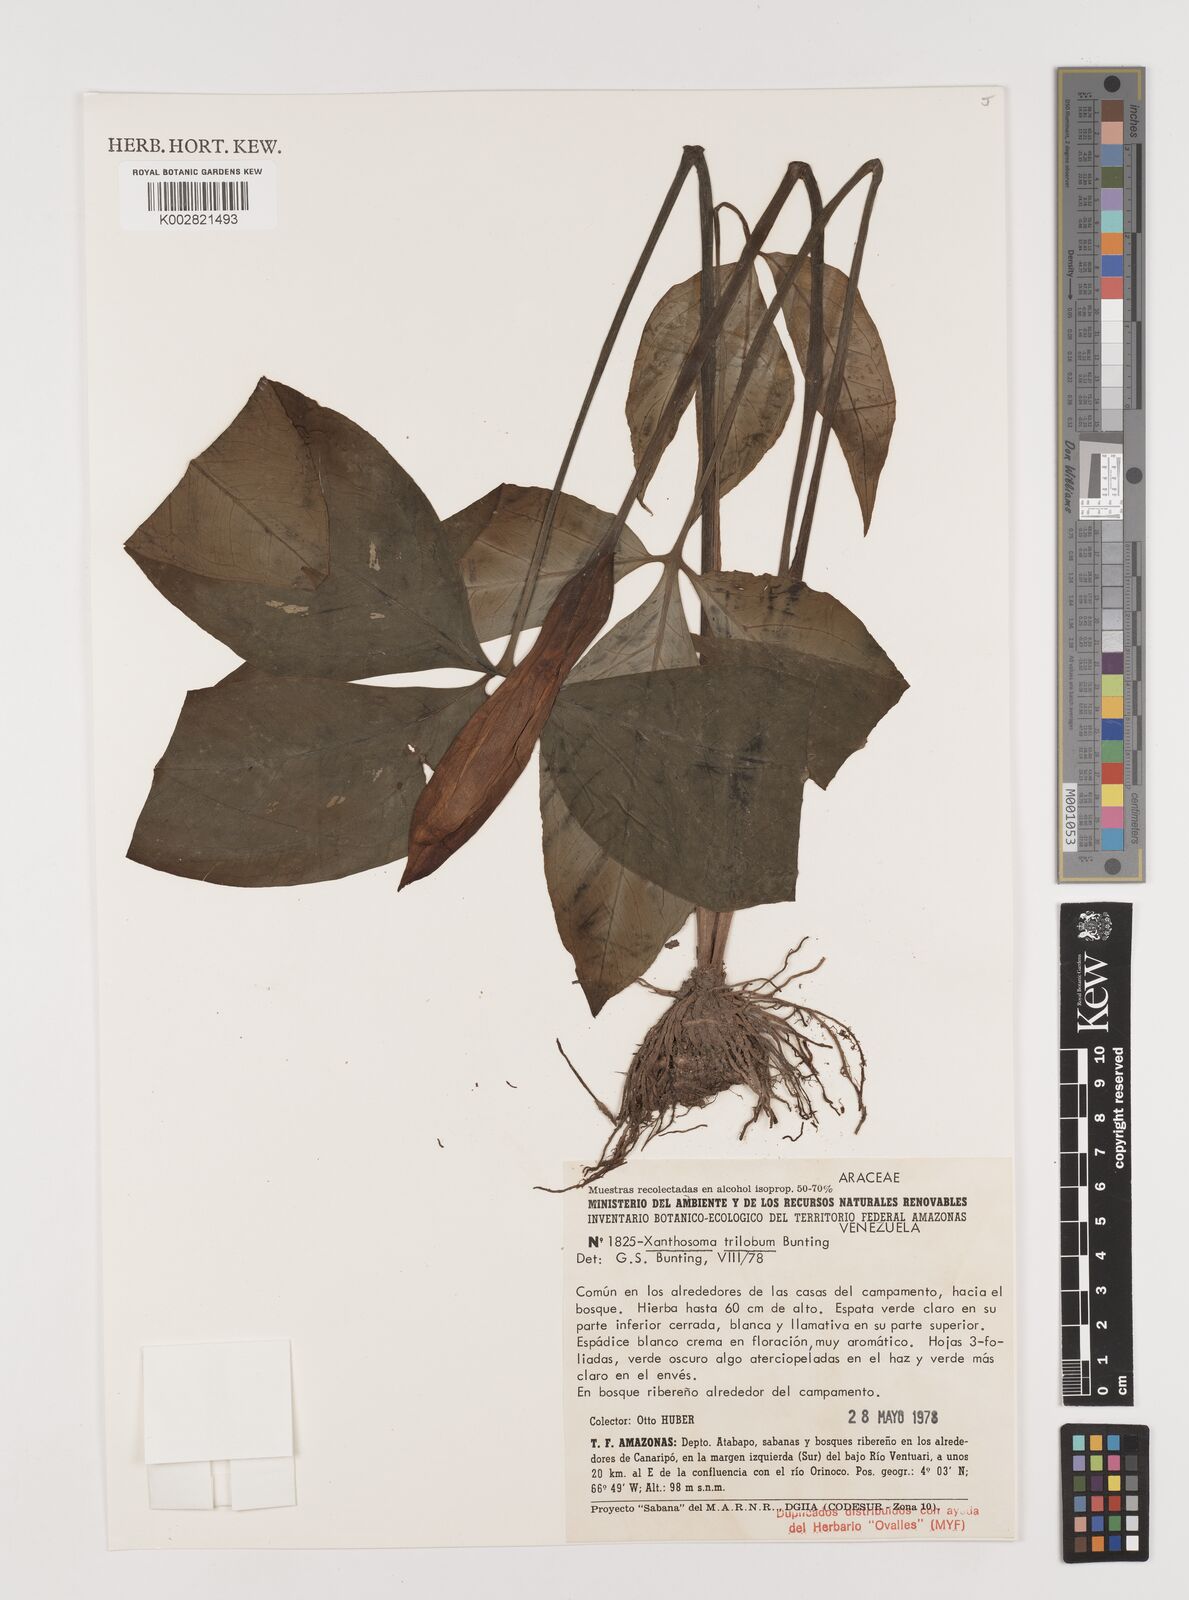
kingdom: Plantae
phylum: Tracheophyta
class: Liliopsida
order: Alismatales
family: Araceae
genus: Xanthosoma
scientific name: Xanthosoma trilobum
